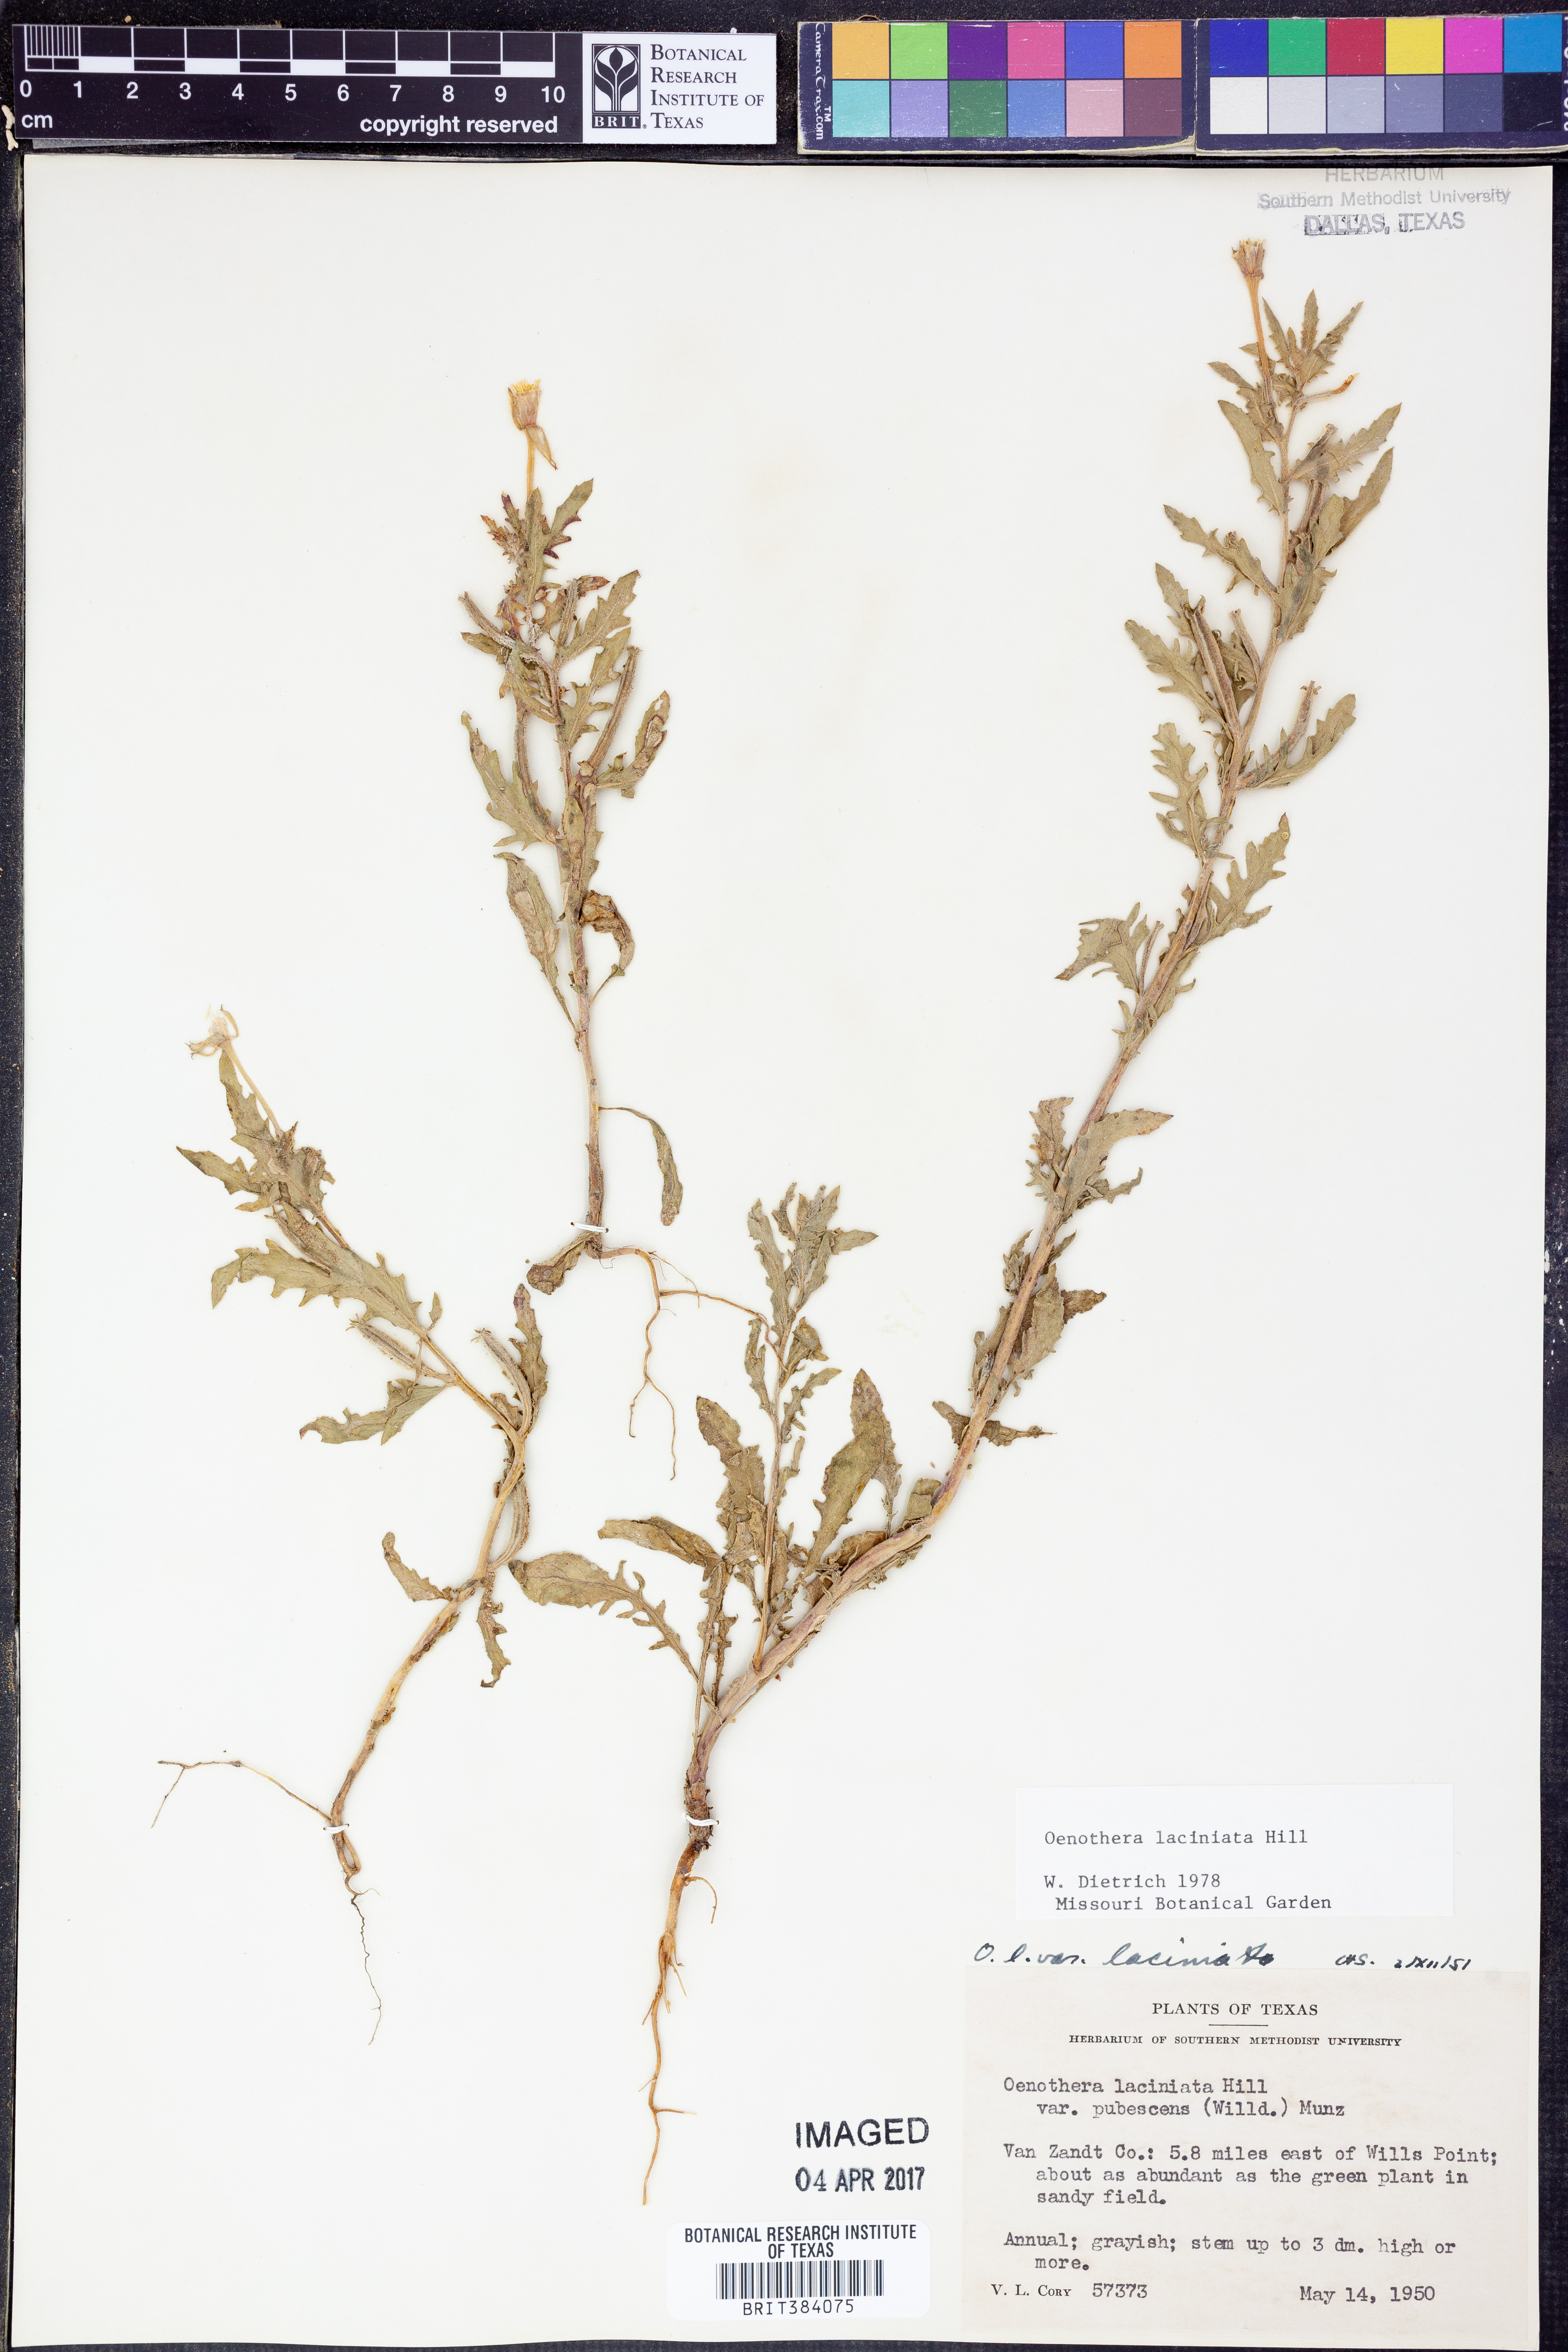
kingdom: Plantae
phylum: Tracheophyta
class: Magnoliopsida
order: Myrtales
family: Onagraceae
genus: Oenothera
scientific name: Oenothera laciniata
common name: Cut-leaved evening-primrose
